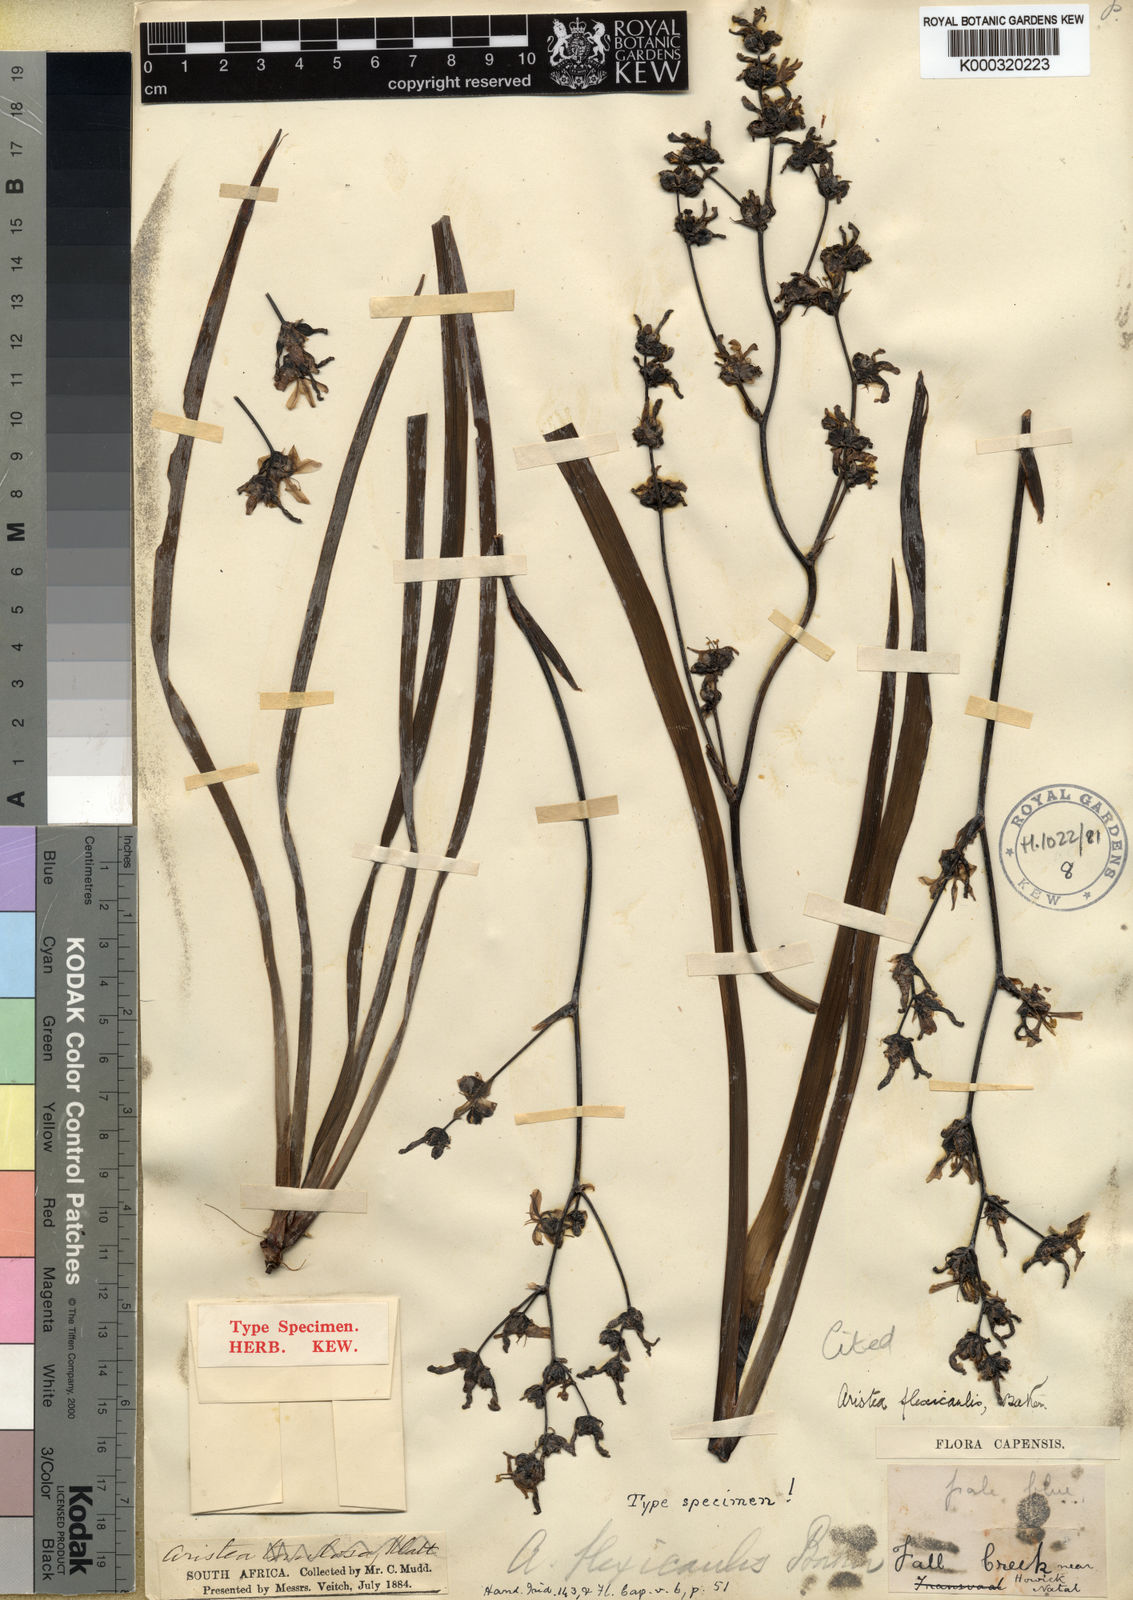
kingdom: Plantae
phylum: Tracheophyta
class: Liliopsida
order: Asparagales
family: Iridaceae
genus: Aristea
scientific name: Aristea flexicaulis
